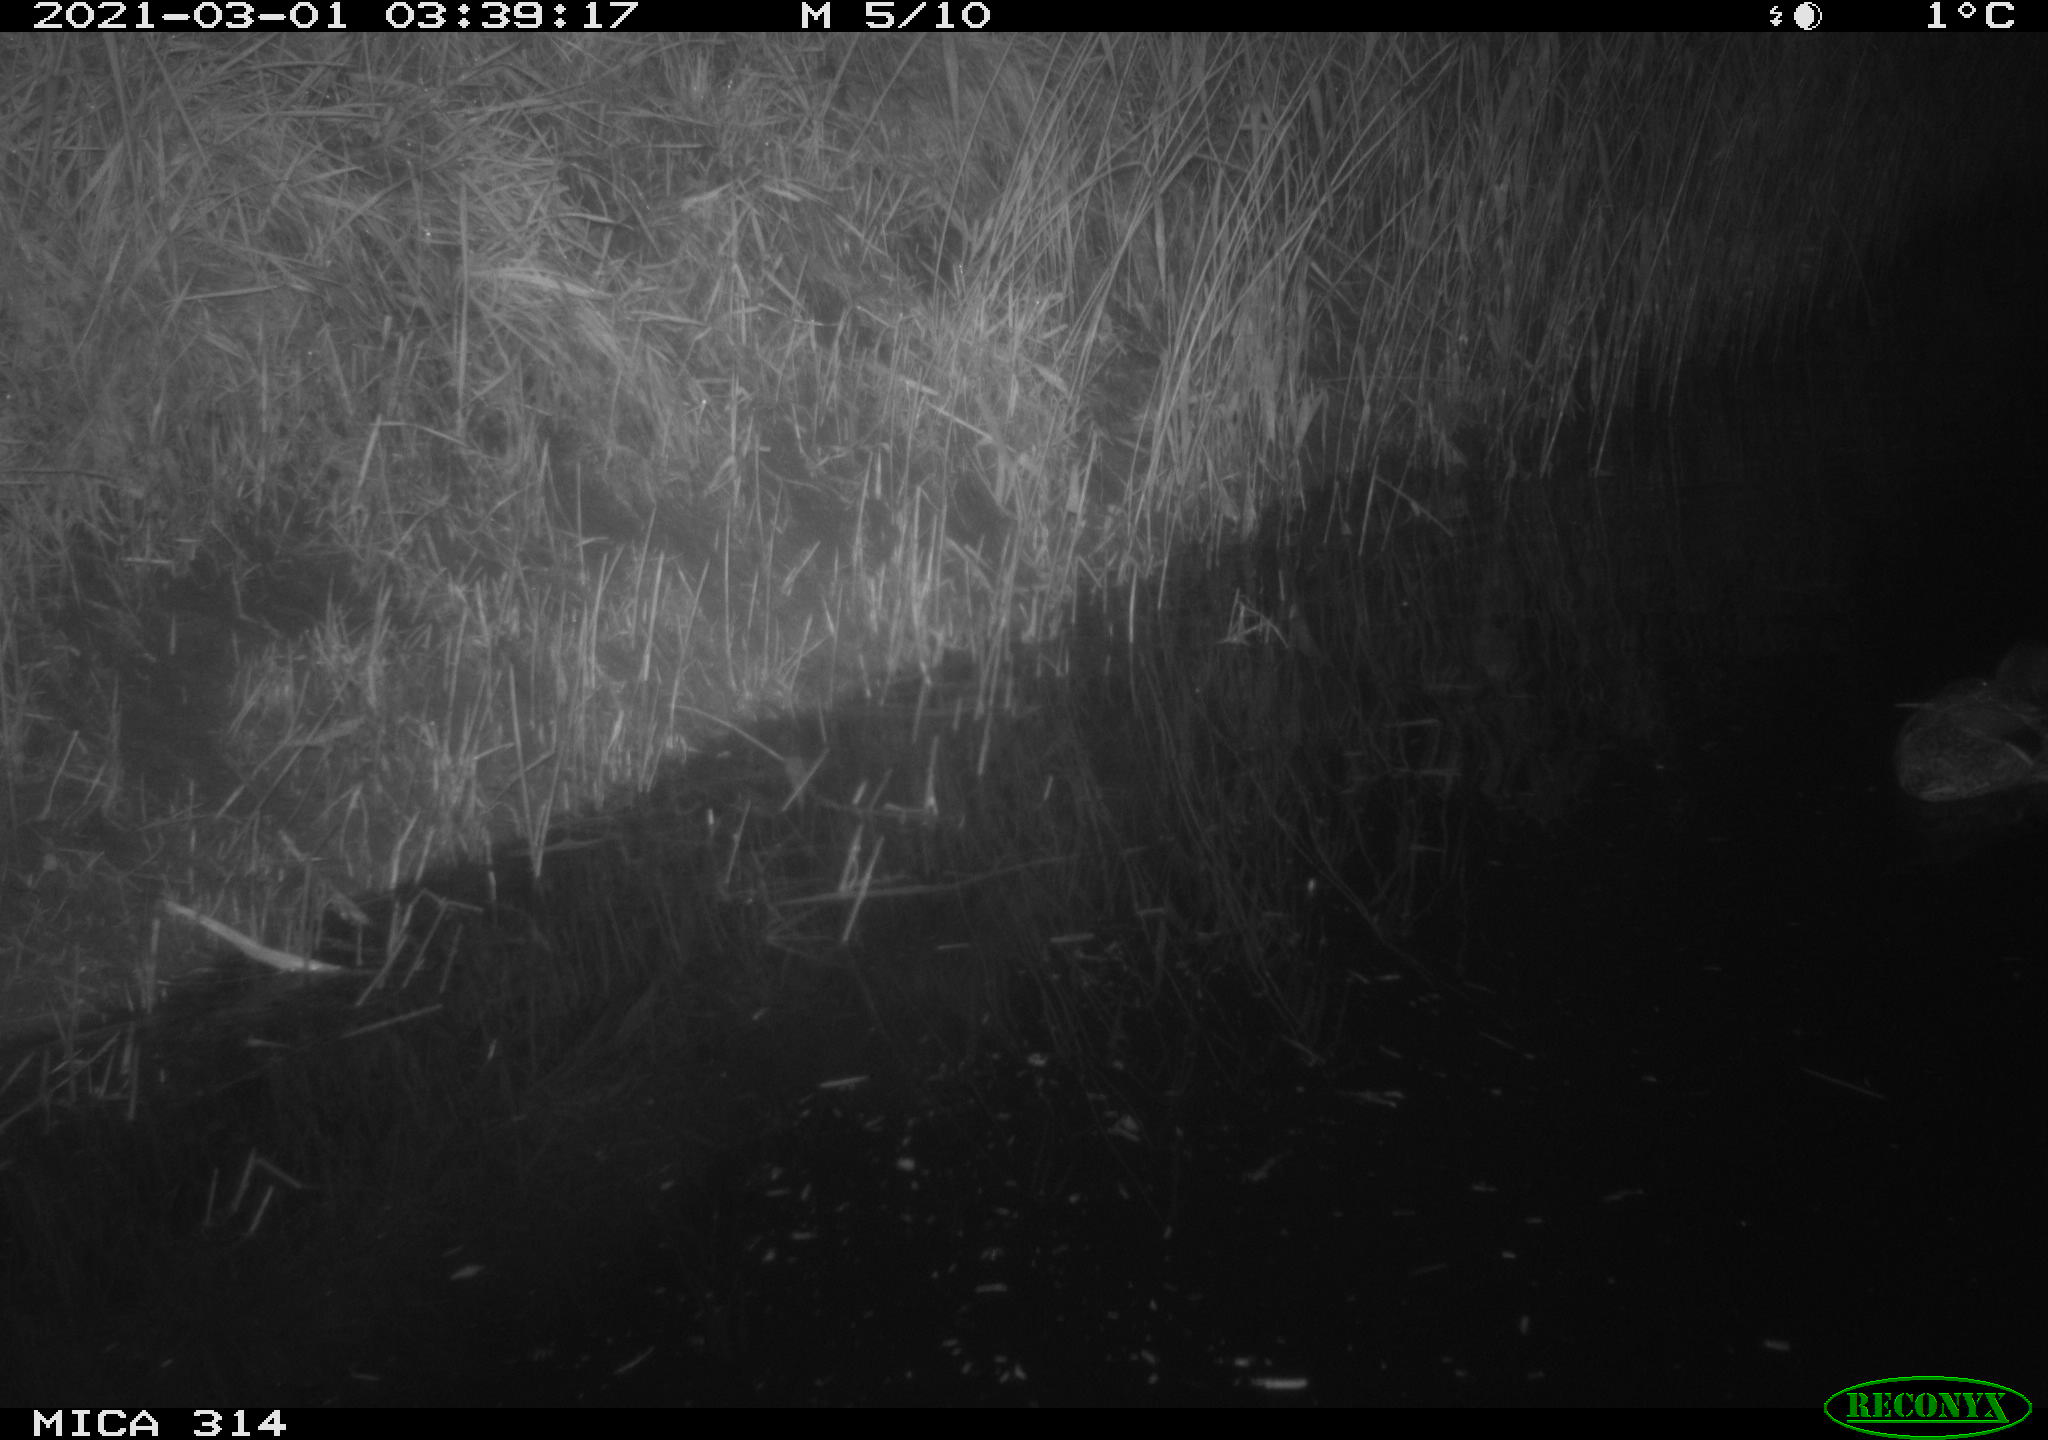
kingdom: Animalia
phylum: Chordata
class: Aves
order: Anseriformes
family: Anatidae
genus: Anas
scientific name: Anas platyrhynchos
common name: Mallard
